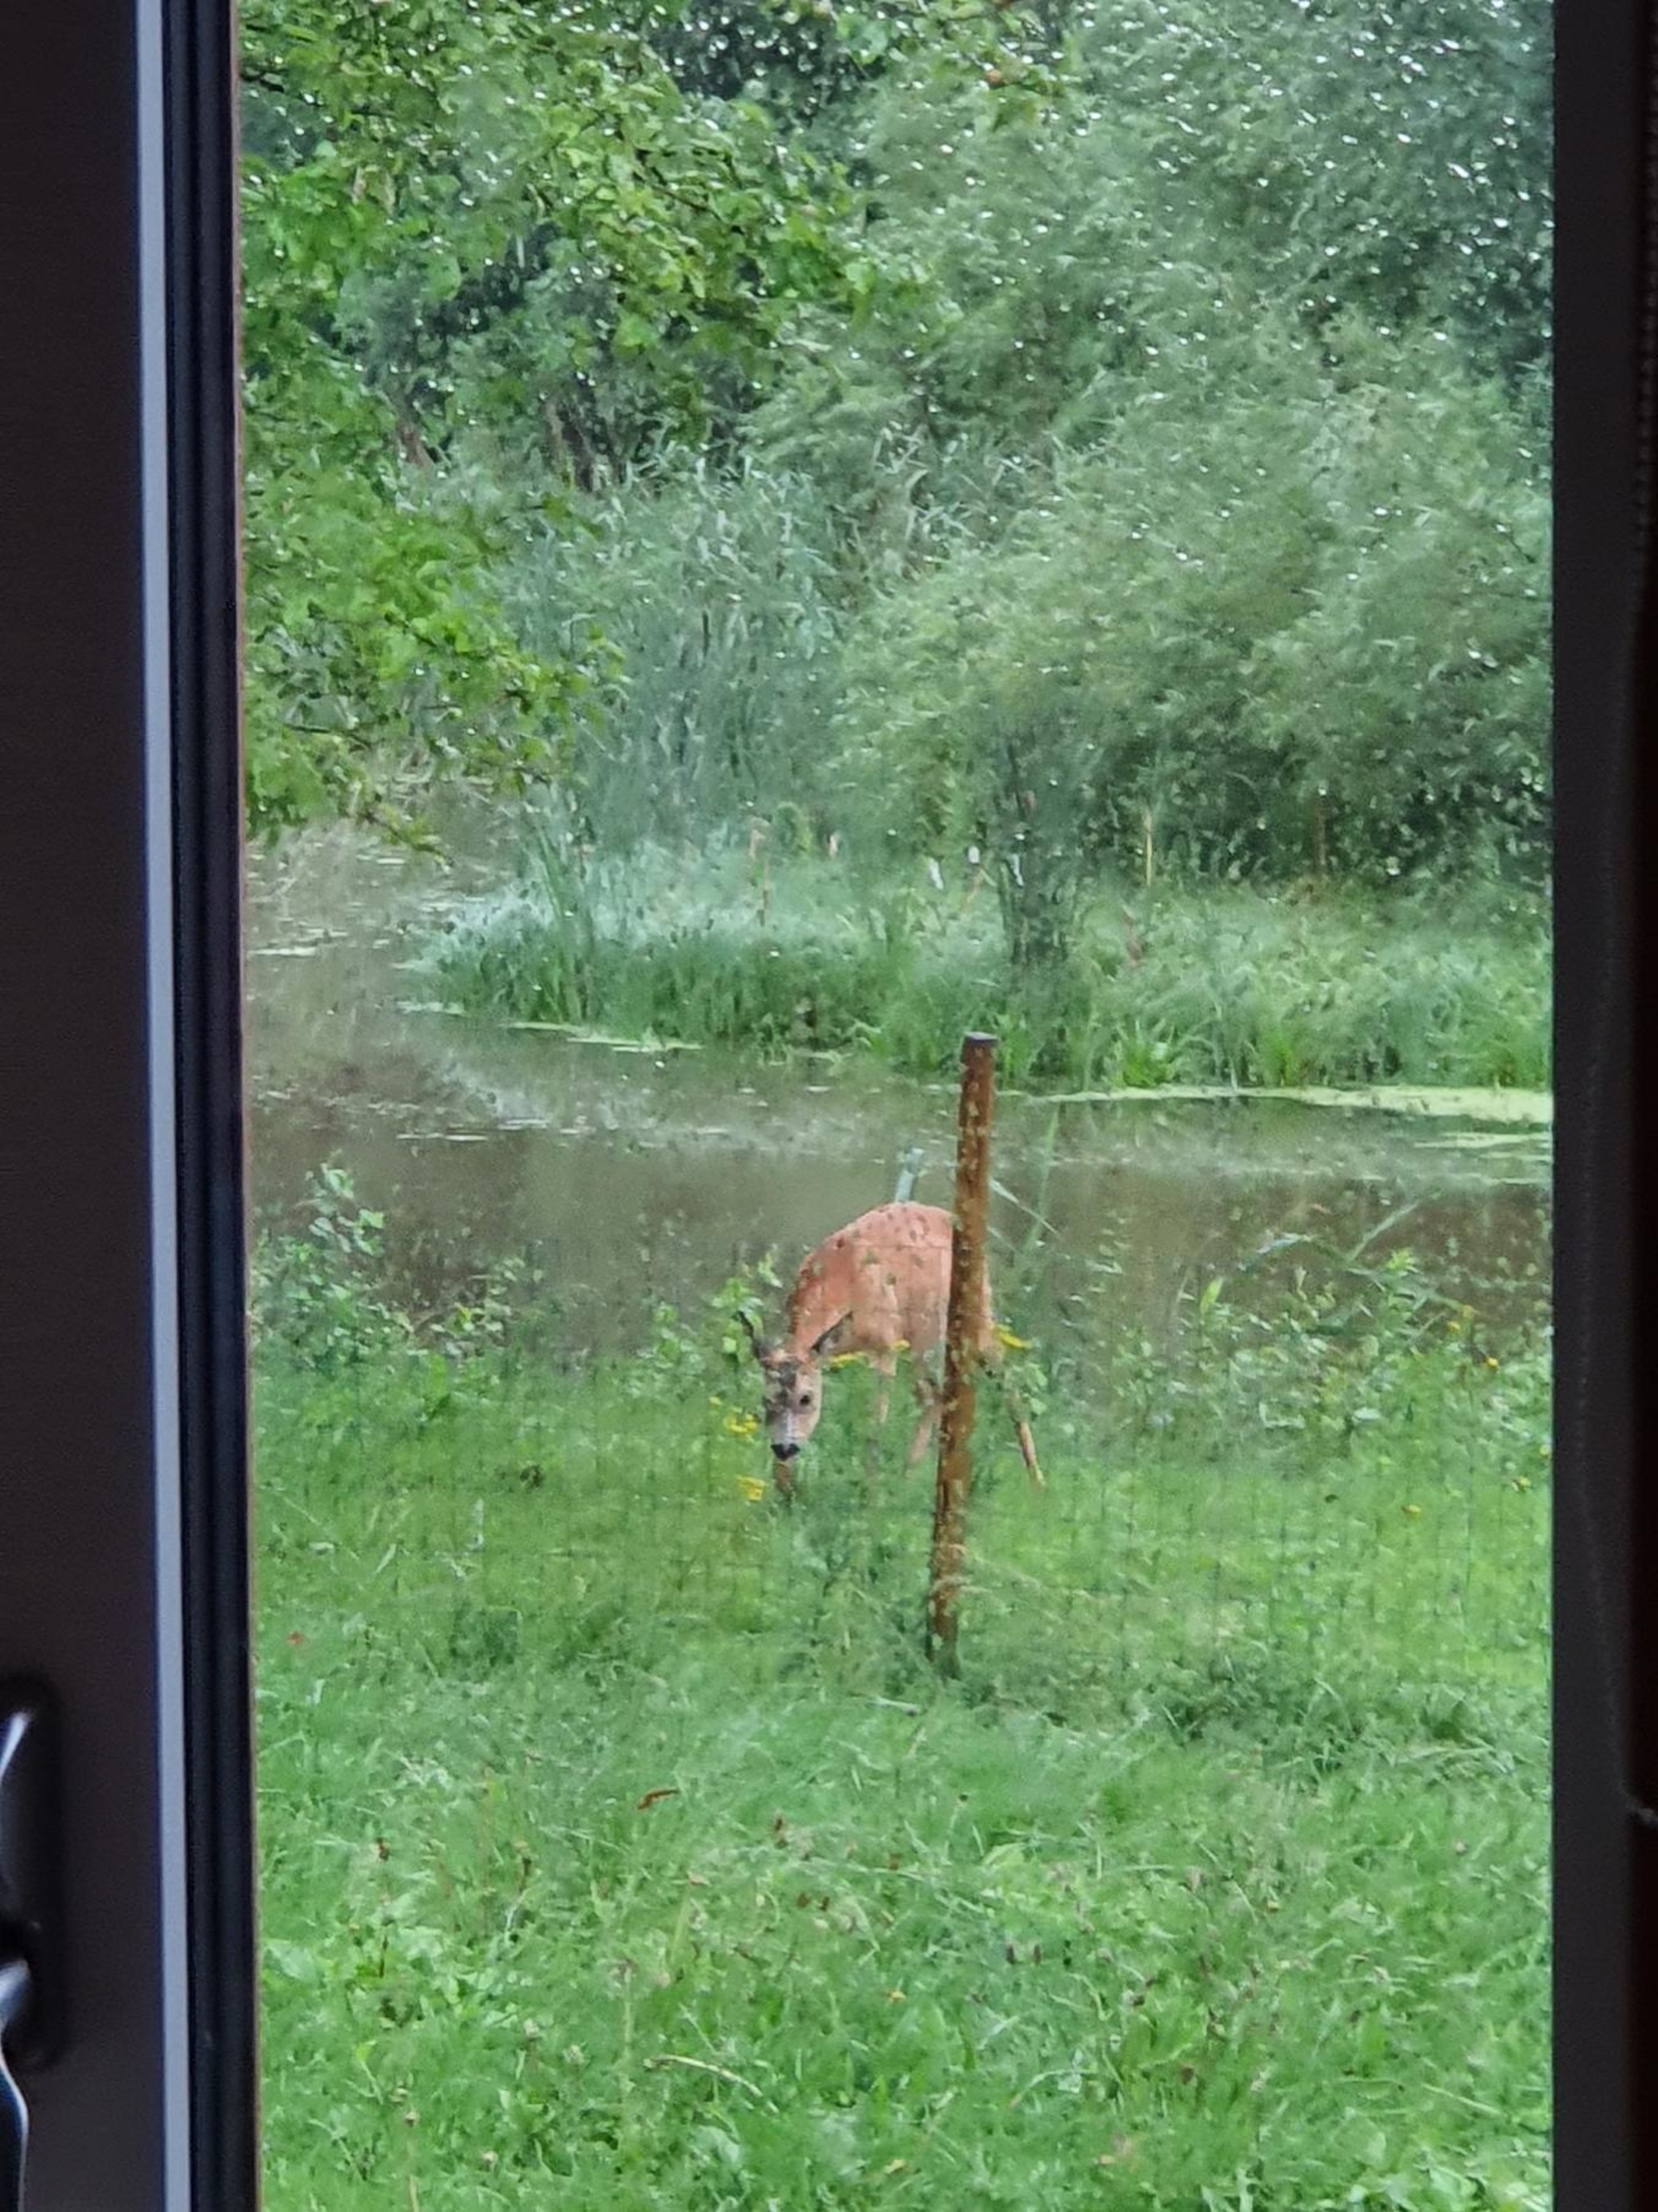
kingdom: Animalia
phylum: Chordata
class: Mammalia
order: Artiodactyla
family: Cervidae
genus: Capreolus
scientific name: Capreolus capreolus
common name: Rådyr
